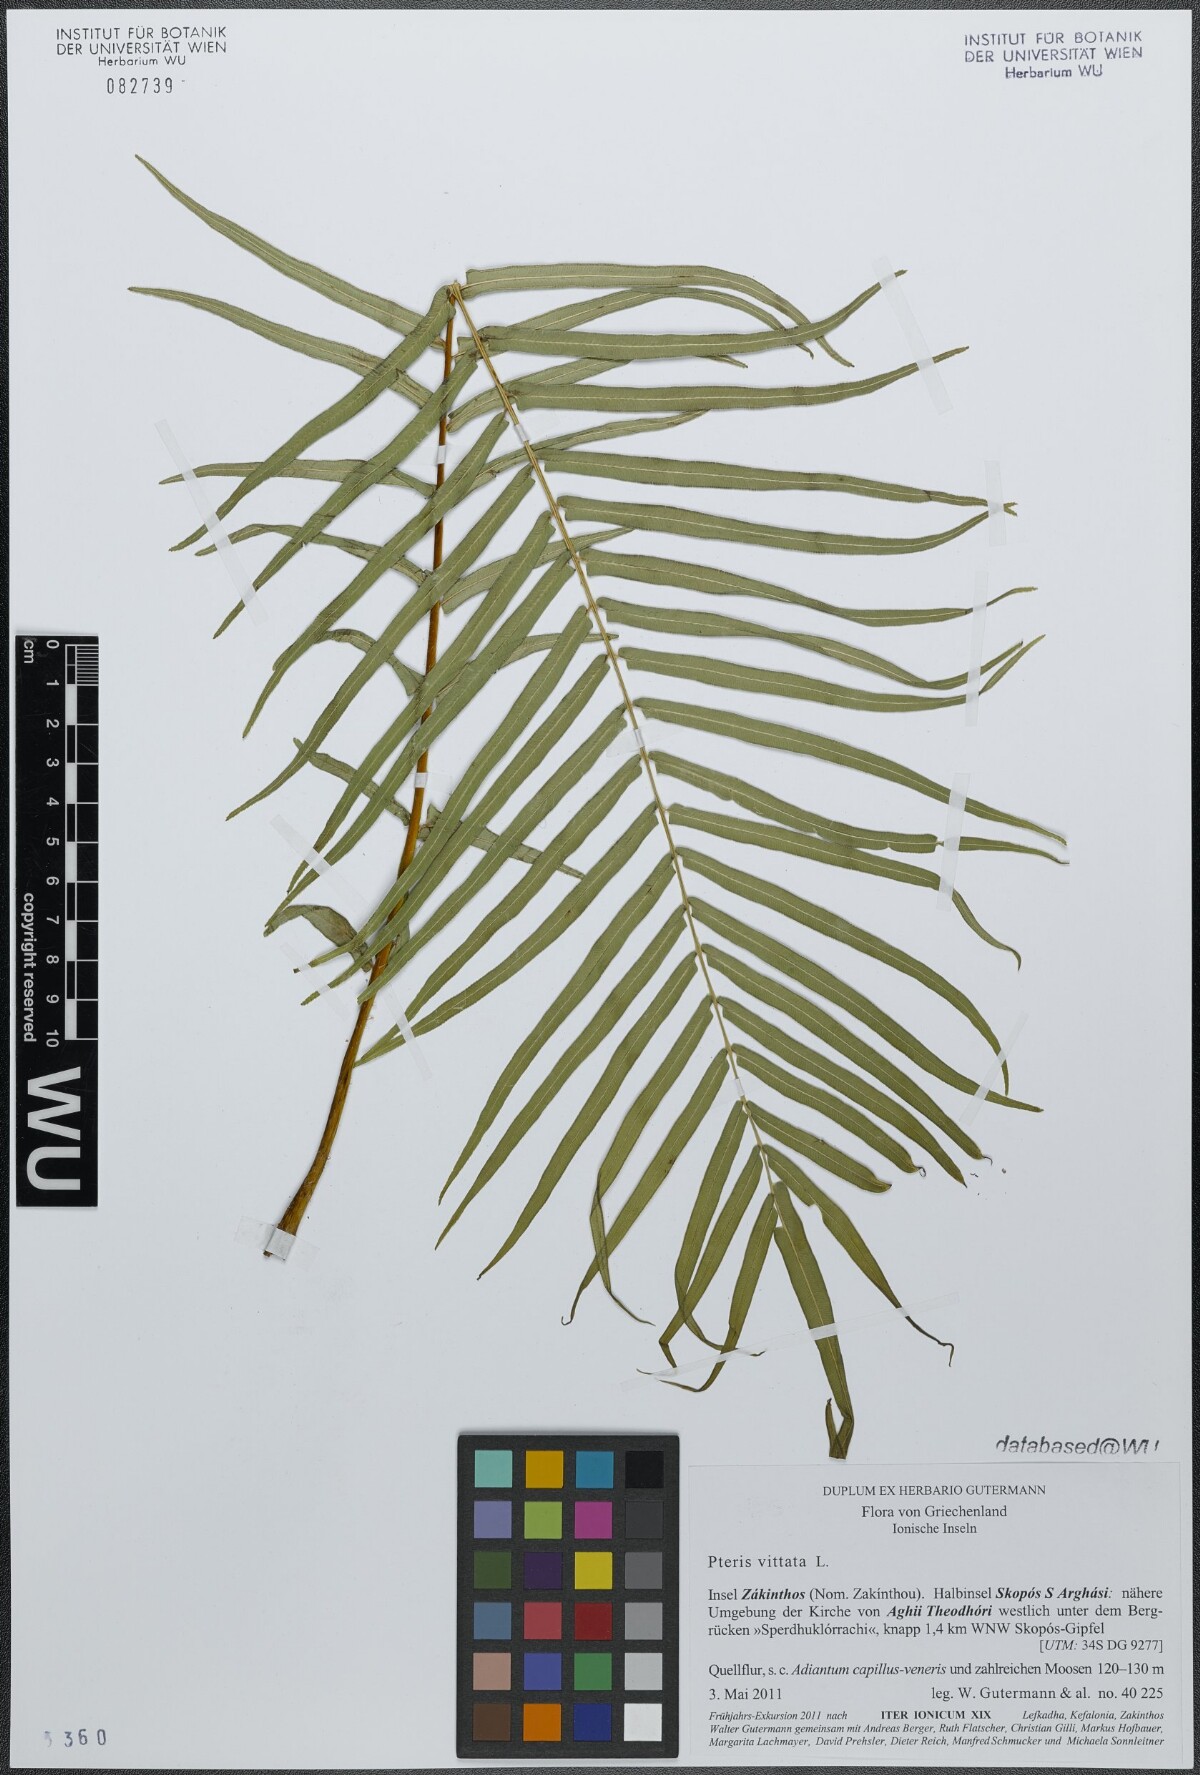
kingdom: Plantae
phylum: Tracheophyta
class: Polypodiopsida
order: Polypodiales
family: Pteridaceae
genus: Pteris
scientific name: Pteris vittata
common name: Ladder brake
